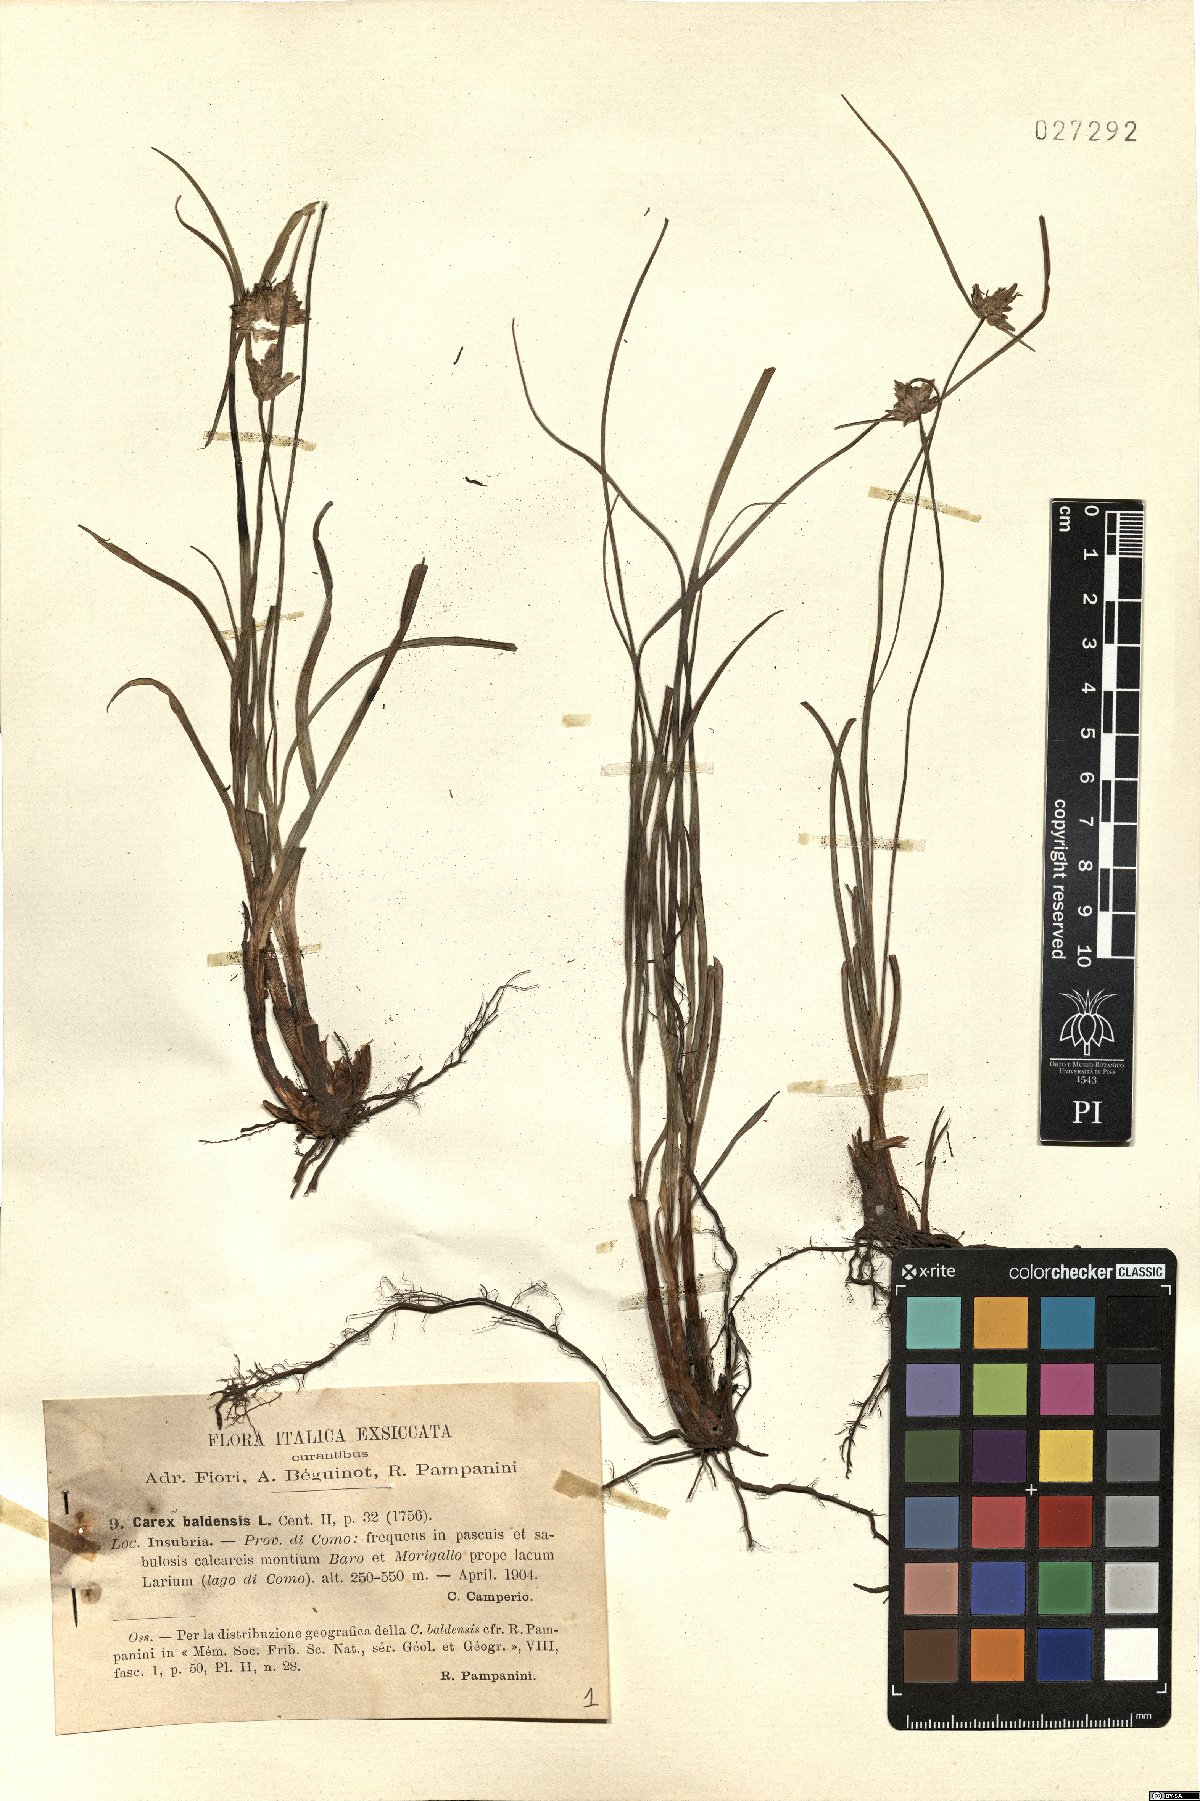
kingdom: Plantae
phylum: Tracheophyta
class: Liliopsida
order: Poales
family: Cyperaceae
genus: Carex
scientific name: Carex baldensis
